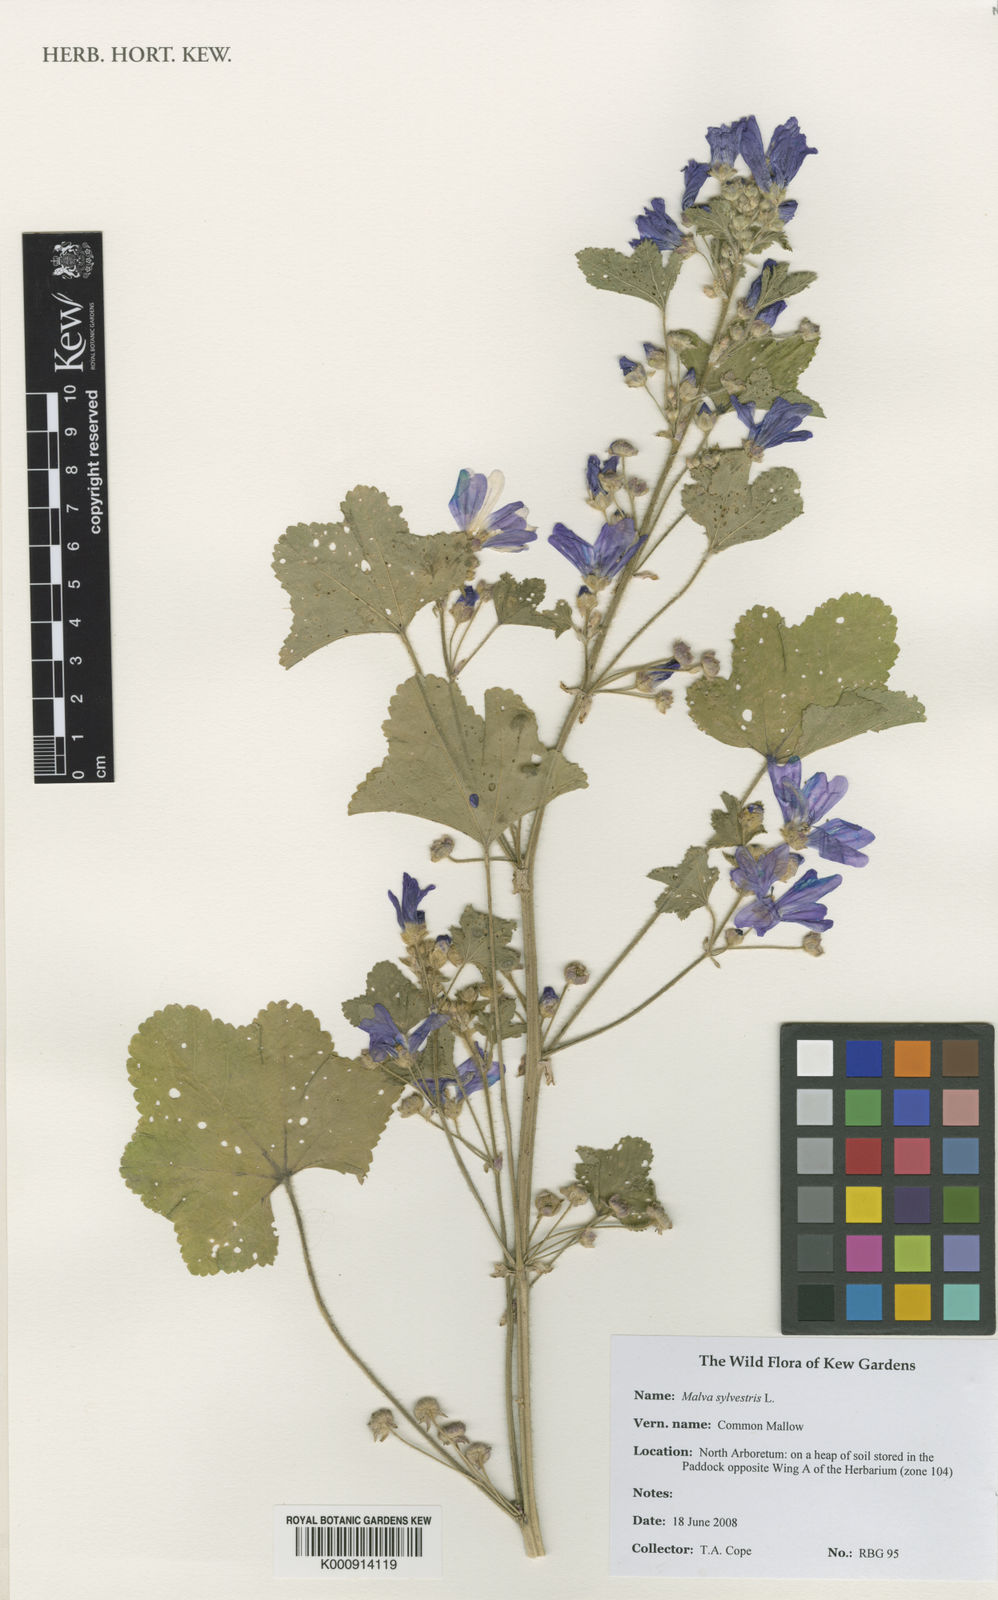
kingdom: Plantae
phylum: Tracheophyta
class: Magnoliopsida
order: Malvales
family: Malvaceae
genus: Malva
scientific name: Malva sylvestris
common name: Common mallow
